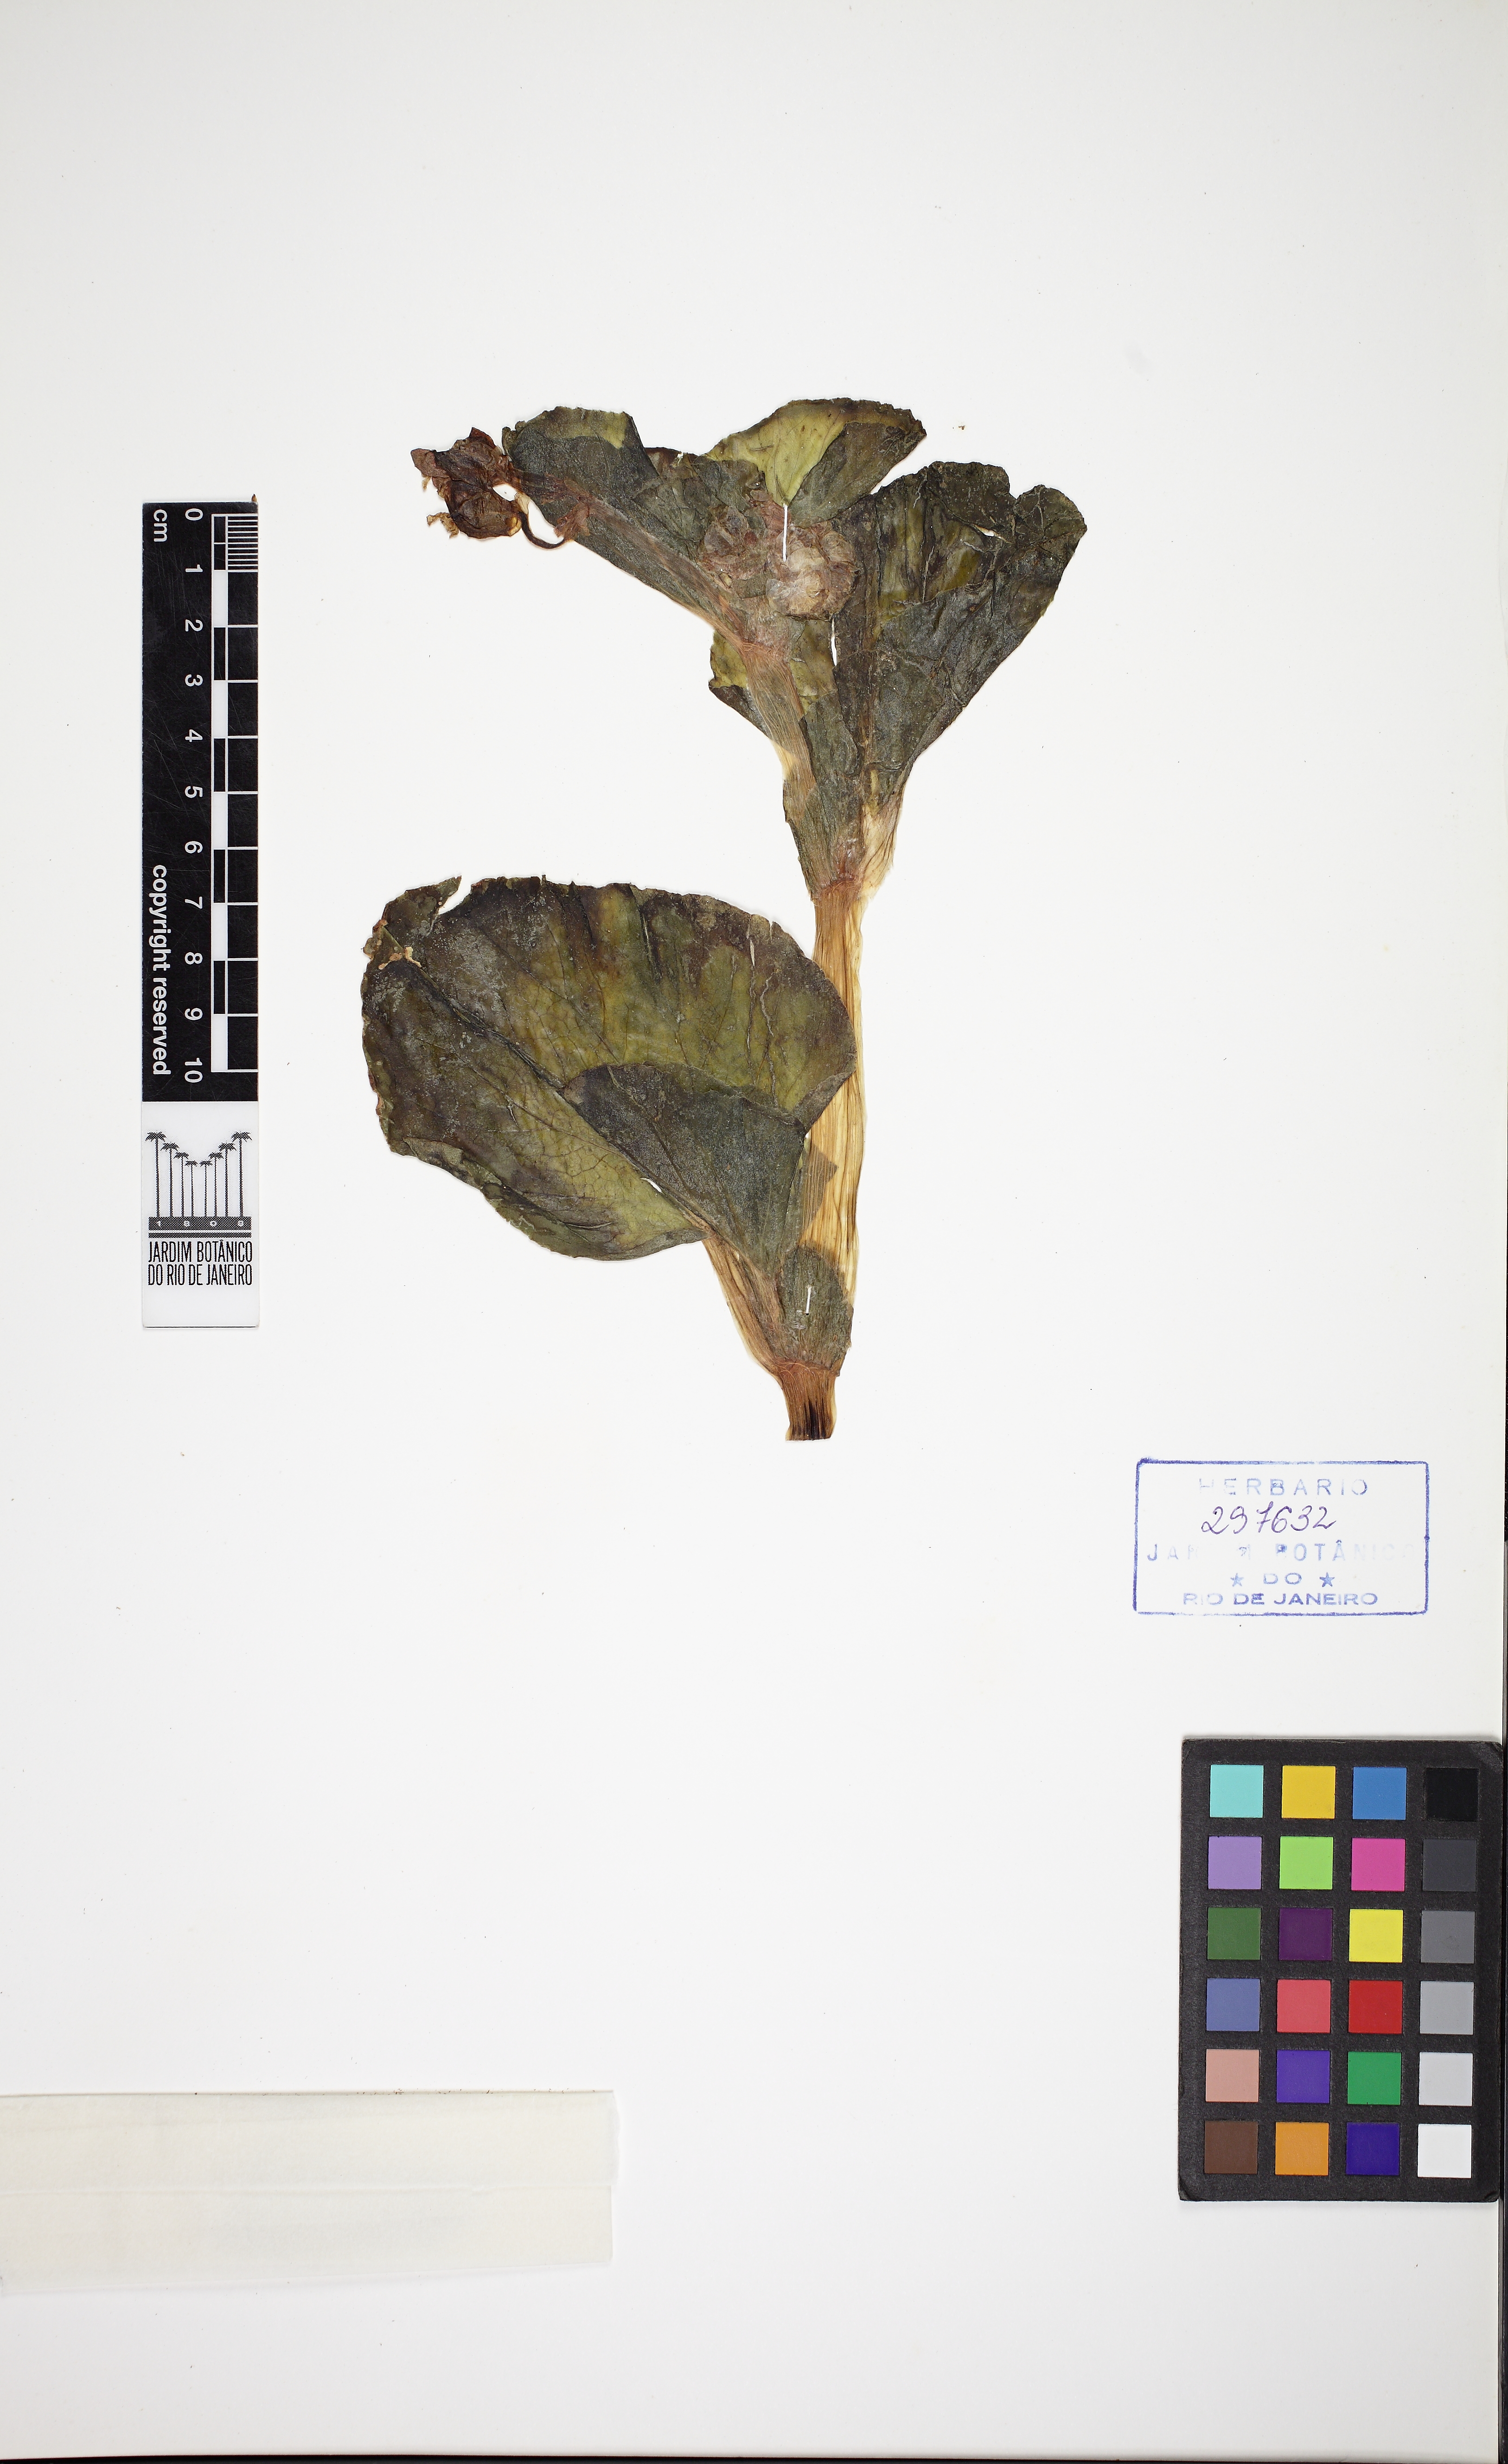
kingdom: Plantae
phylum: Tracheophyta
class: Magnoliopsida
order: Cucurbitales
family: Begoniaceae
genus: Begonia
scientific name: Begonia cucullata
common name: Clubbed begonia
